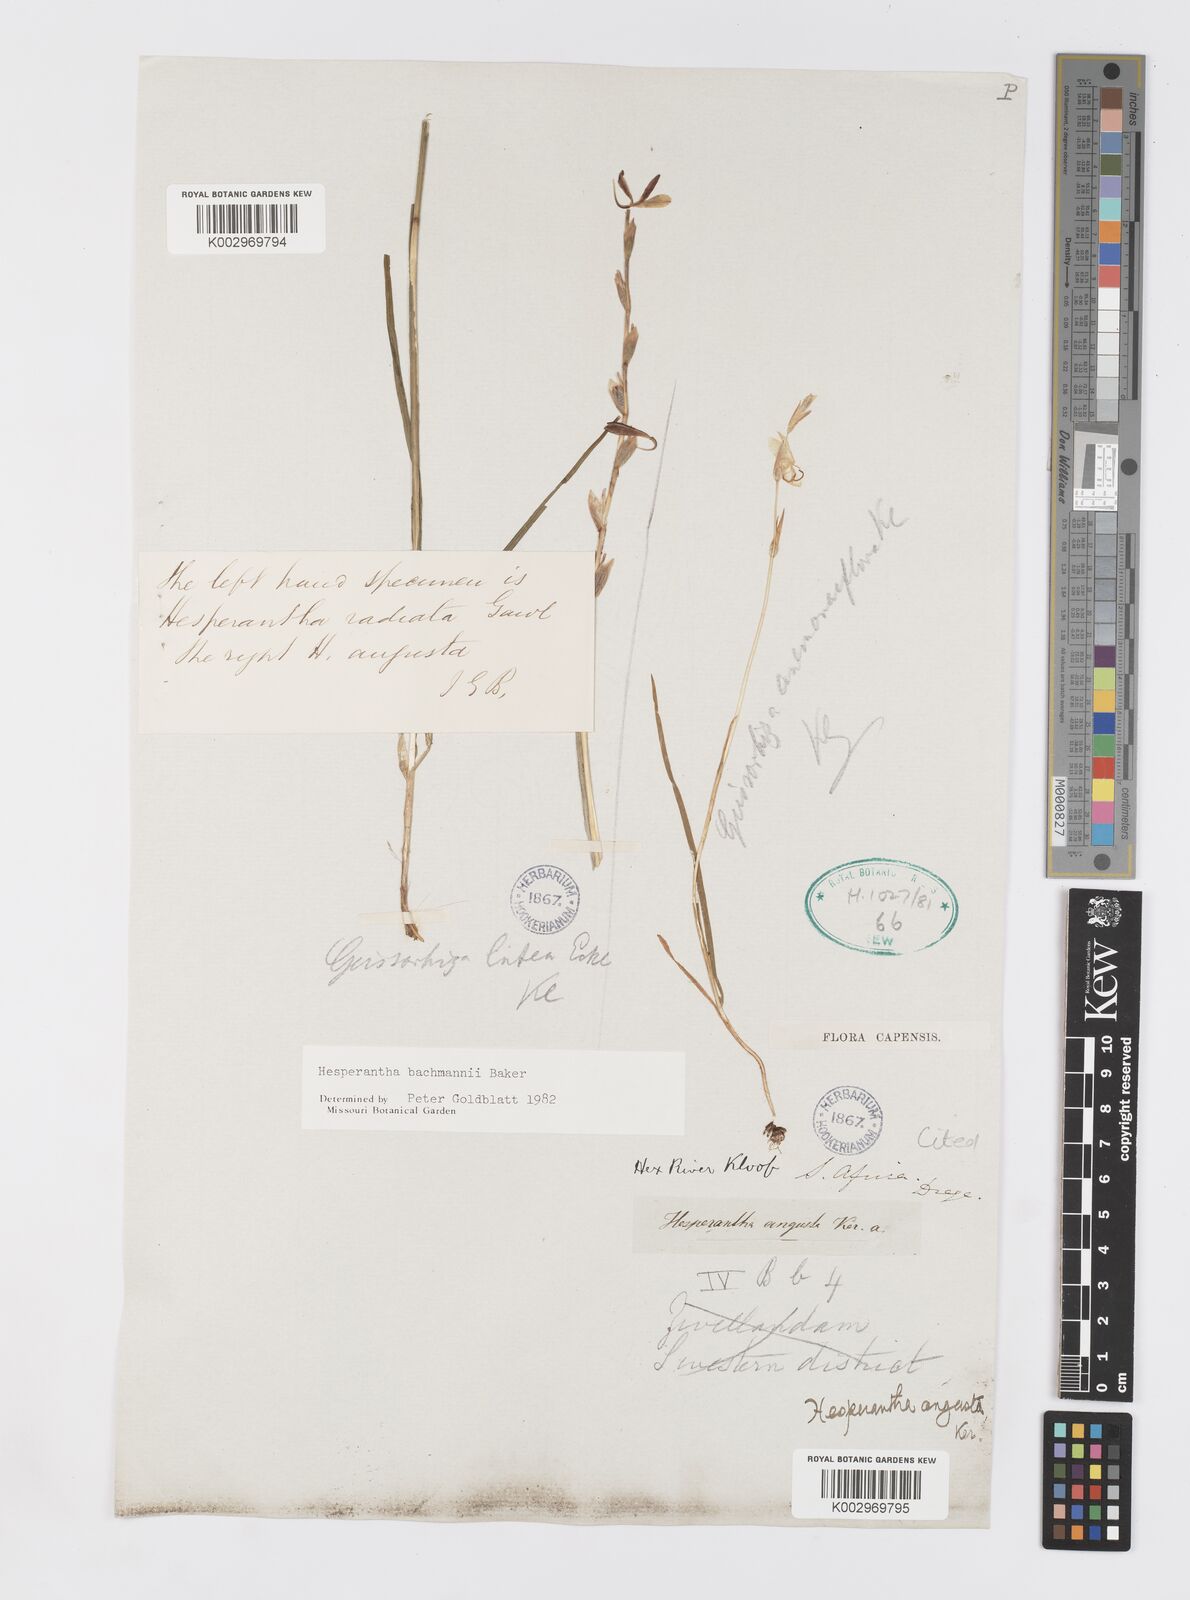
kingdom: Plantae
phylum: Tracheophyta
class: Liliopsida
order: Asparagales
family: Iridaceae
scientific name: Iridaceae
